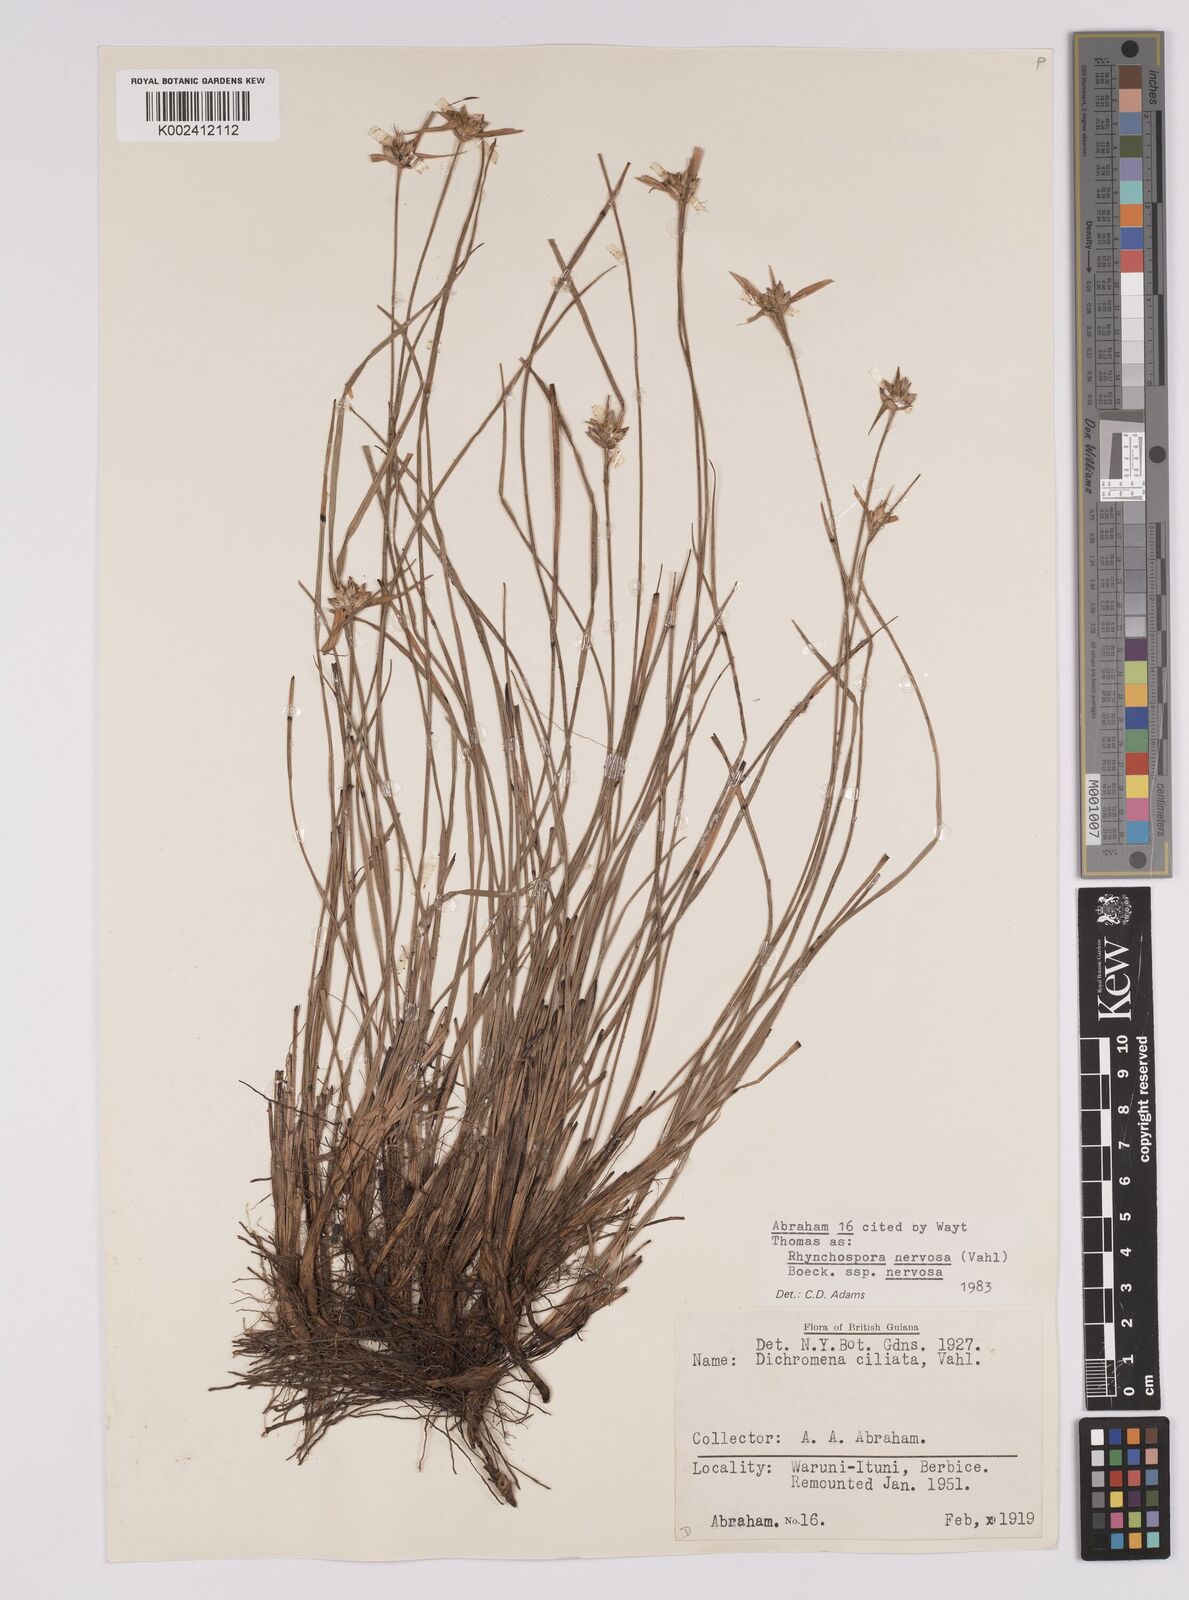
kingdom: Plantae
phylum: Tracheophyta
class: Liliopsida
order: Poales
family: Cyperaceae
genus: Rhynchospora
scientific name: Rhynchospora nervosa
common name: Star sedge
